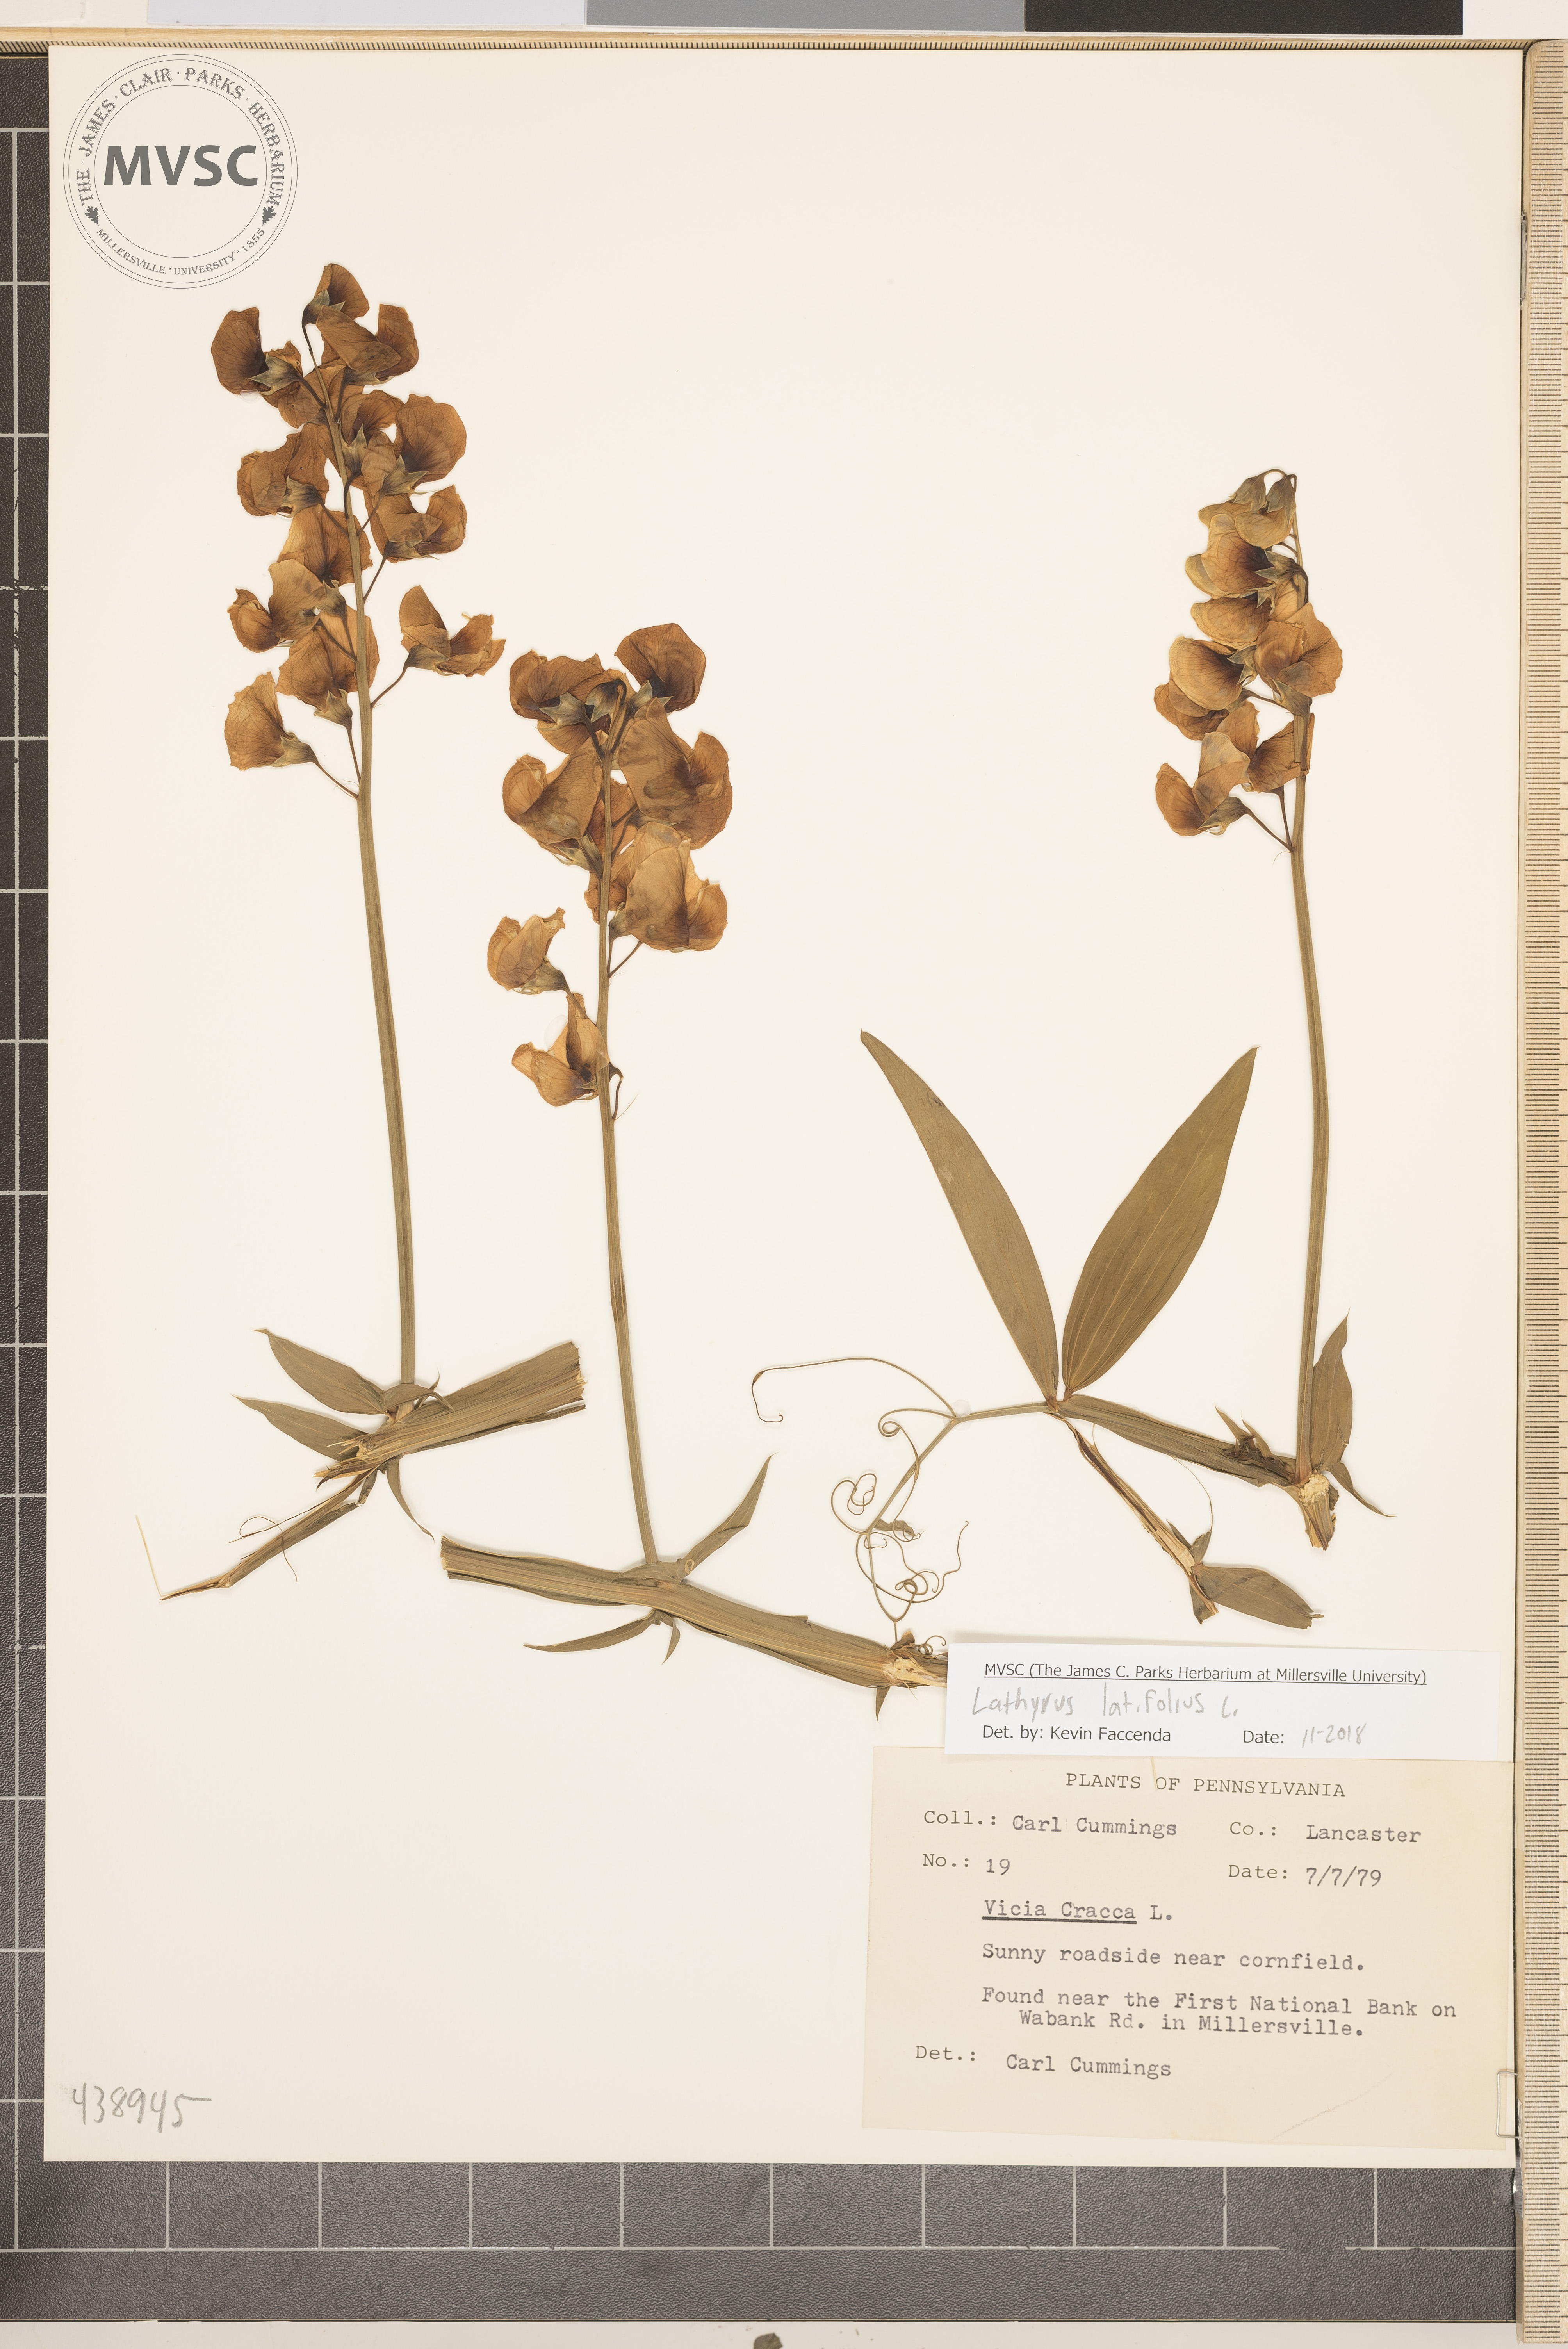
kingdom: Plantae
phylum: Tracheophyta
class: Magnoliopsida
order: Fabales
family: Fabaceae
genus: Lathyrus
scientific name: Lathyrus latifolius
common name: Perennial pea
